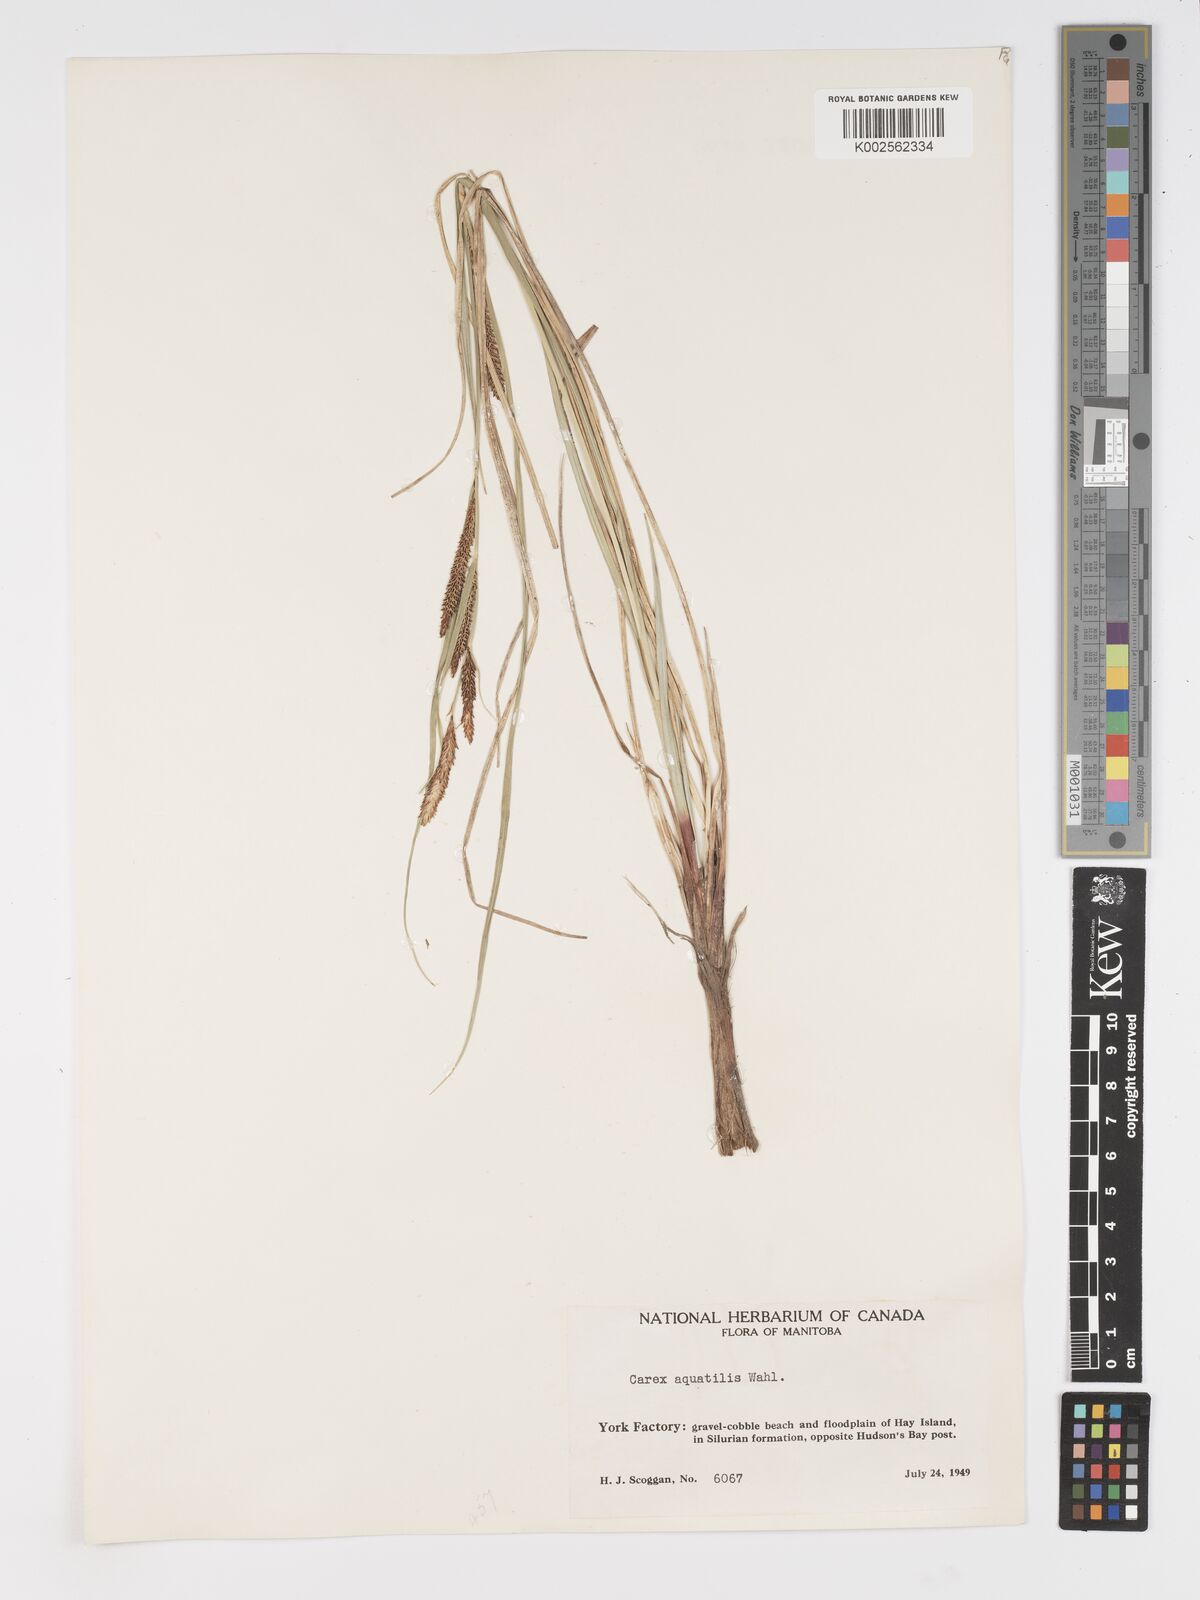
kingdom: Plantae
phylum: Tracheophyta
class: Liliopsida
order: Poales
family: Cyperaceae
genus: Carex
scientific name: Carex aquatilis
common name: Water sedge
